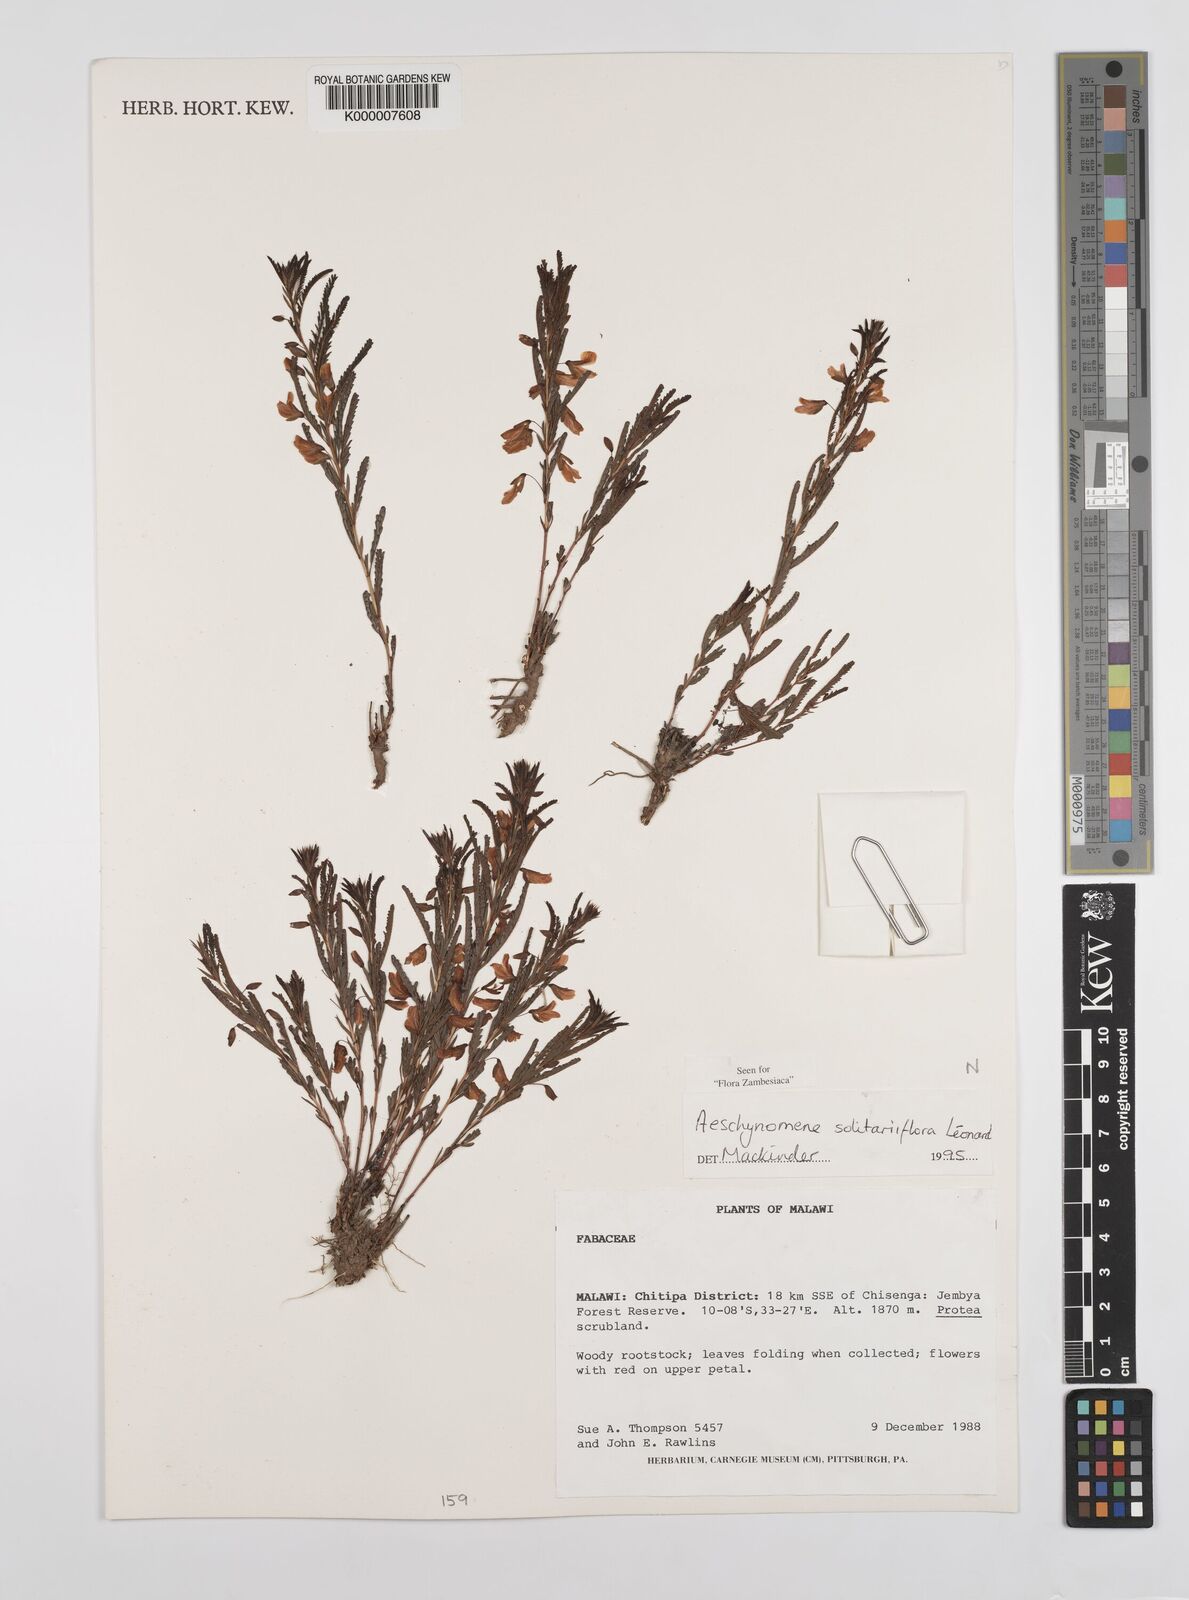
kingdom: Plantae
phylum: Tracheophyta
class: Magnoliopsida
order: Fabales
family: Fabaceae
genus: Aeschynomene
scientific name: Aeschynomene solitariiflora
